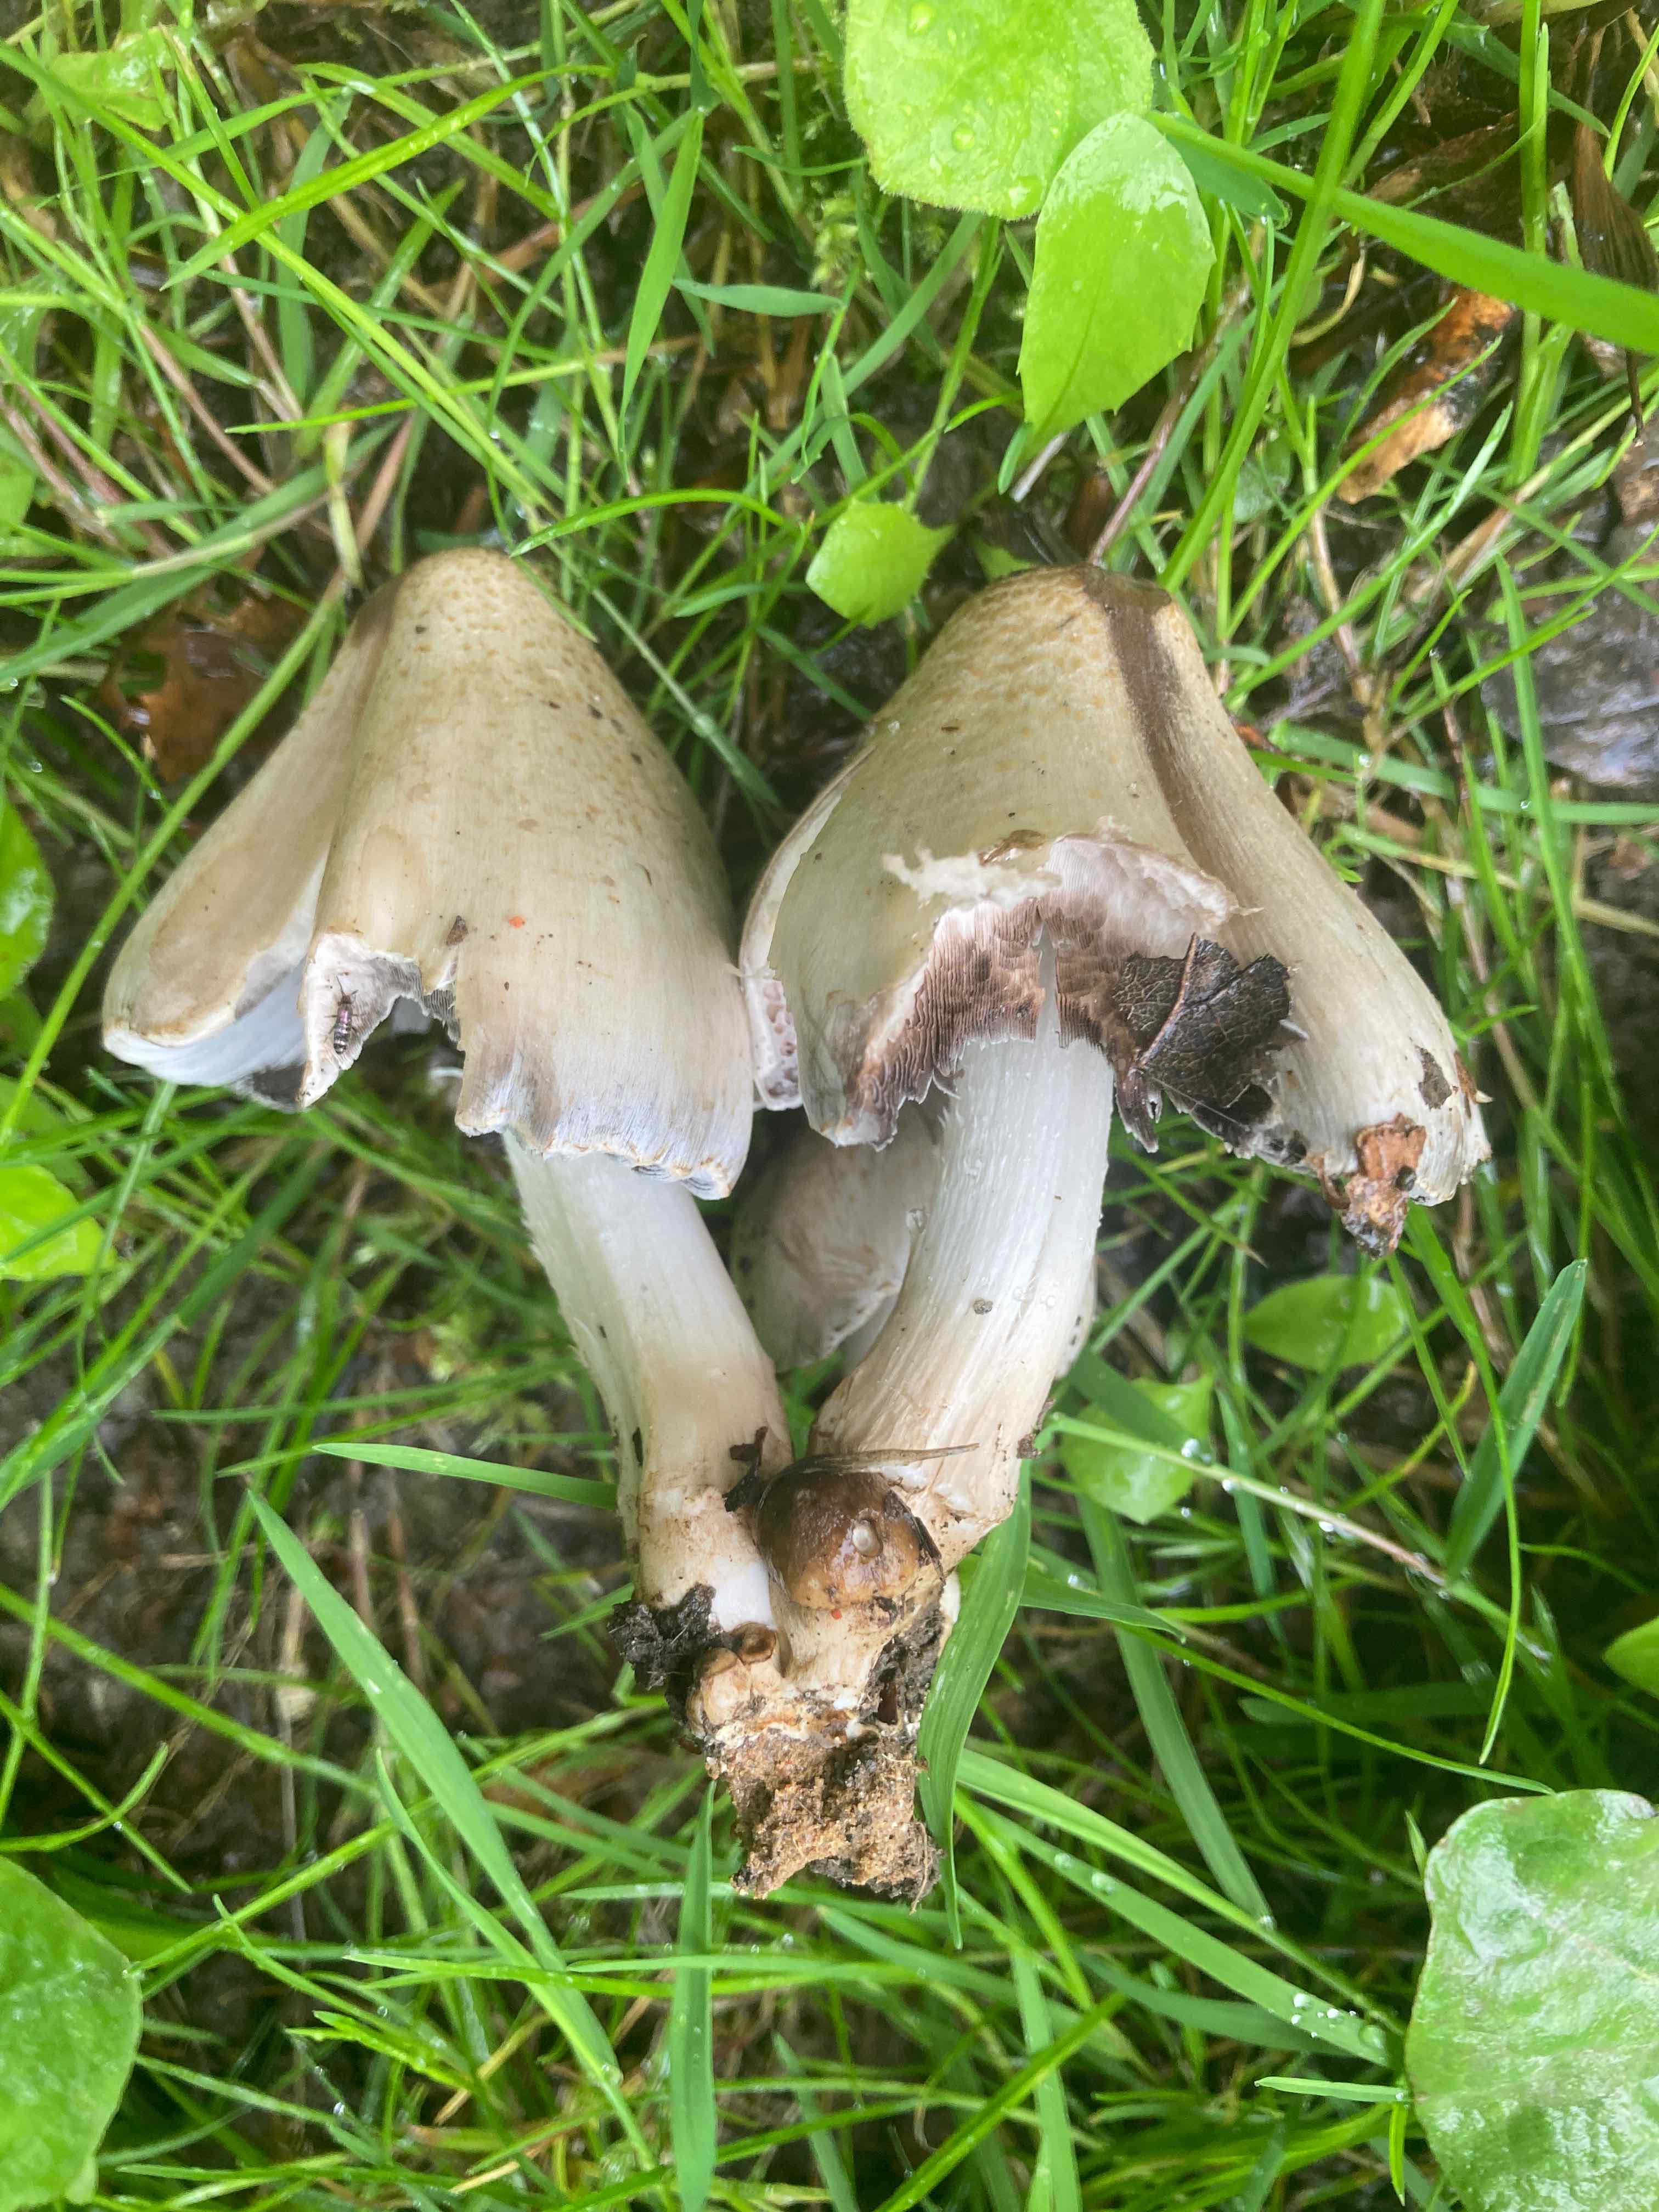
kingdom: Fungi
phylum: Basidiomycota
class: Agaricomycetes
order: Agaricales
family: Psathyrellaceae
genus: Coprinopsis
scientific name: Coprinopsis atramentaria
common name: almindelig blækhat
